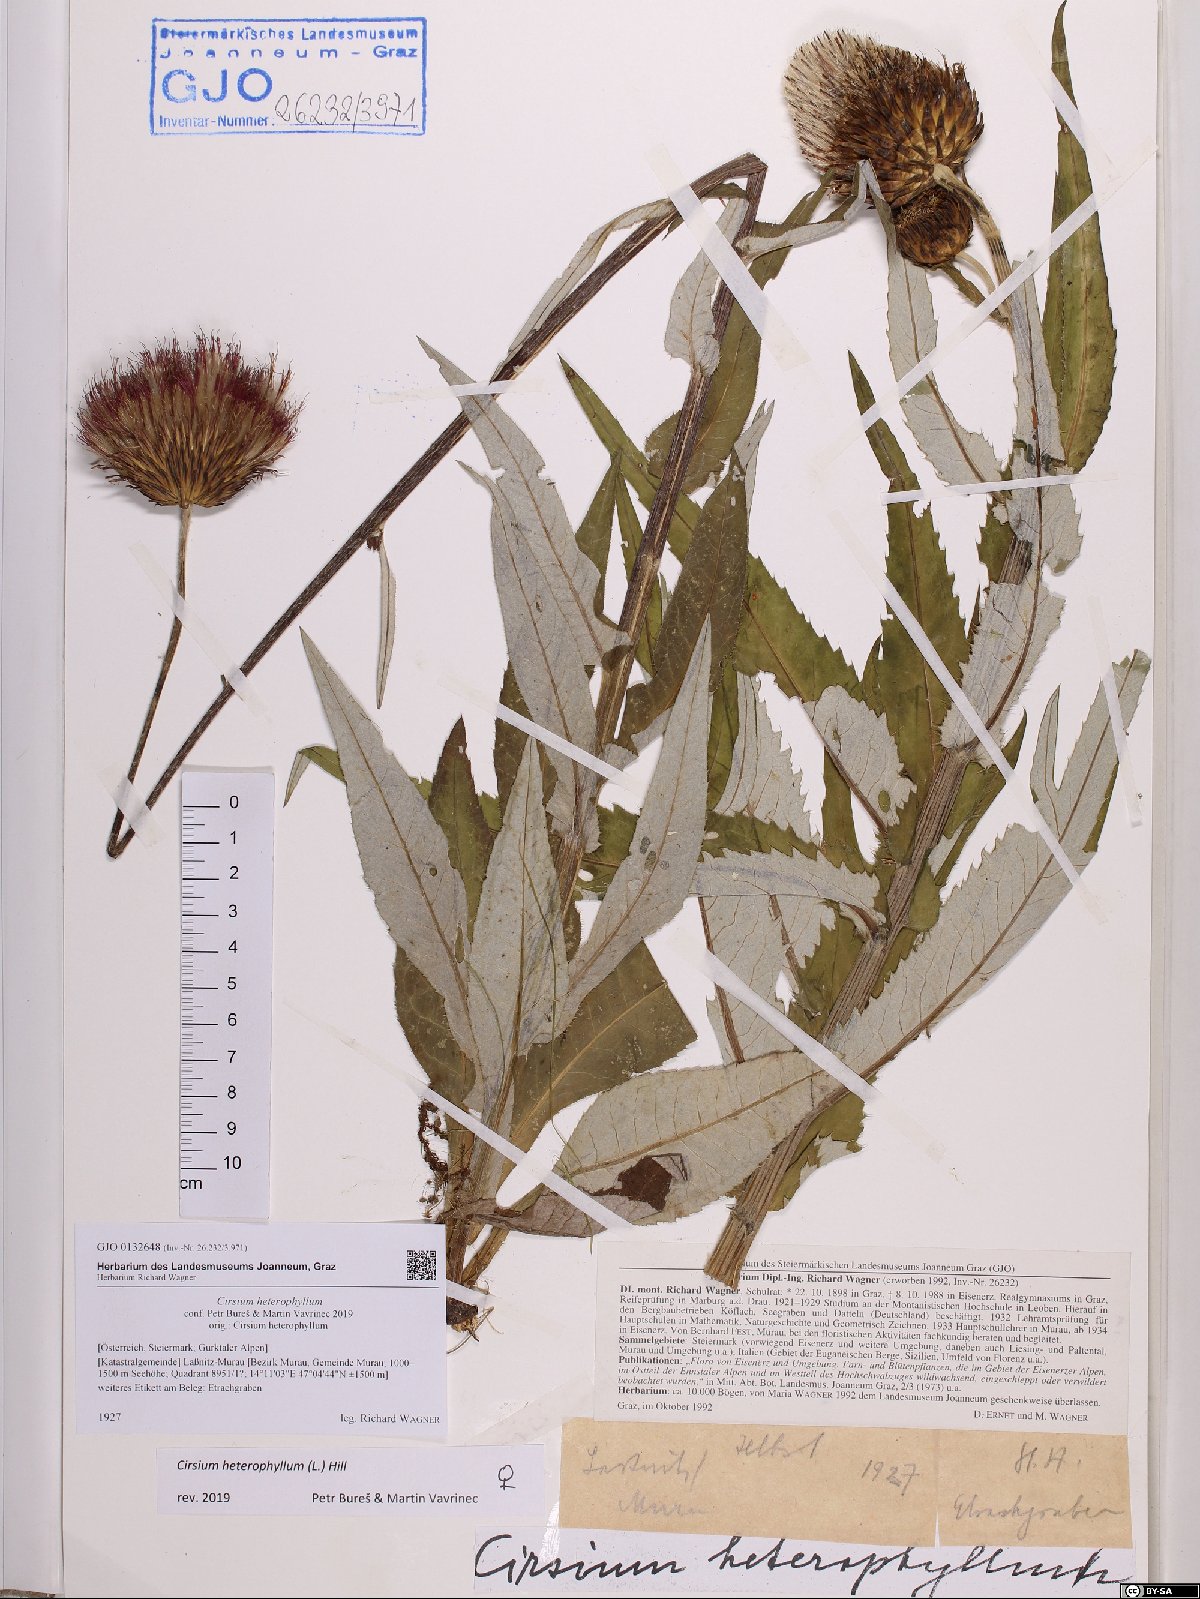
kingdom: Plantae
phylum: Tracheophyta
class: Magnoliopsida
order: Asterales
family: Asteraceae
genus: Cirsium
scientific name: Cirsium heterophyllum
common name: Melancholy thistle
